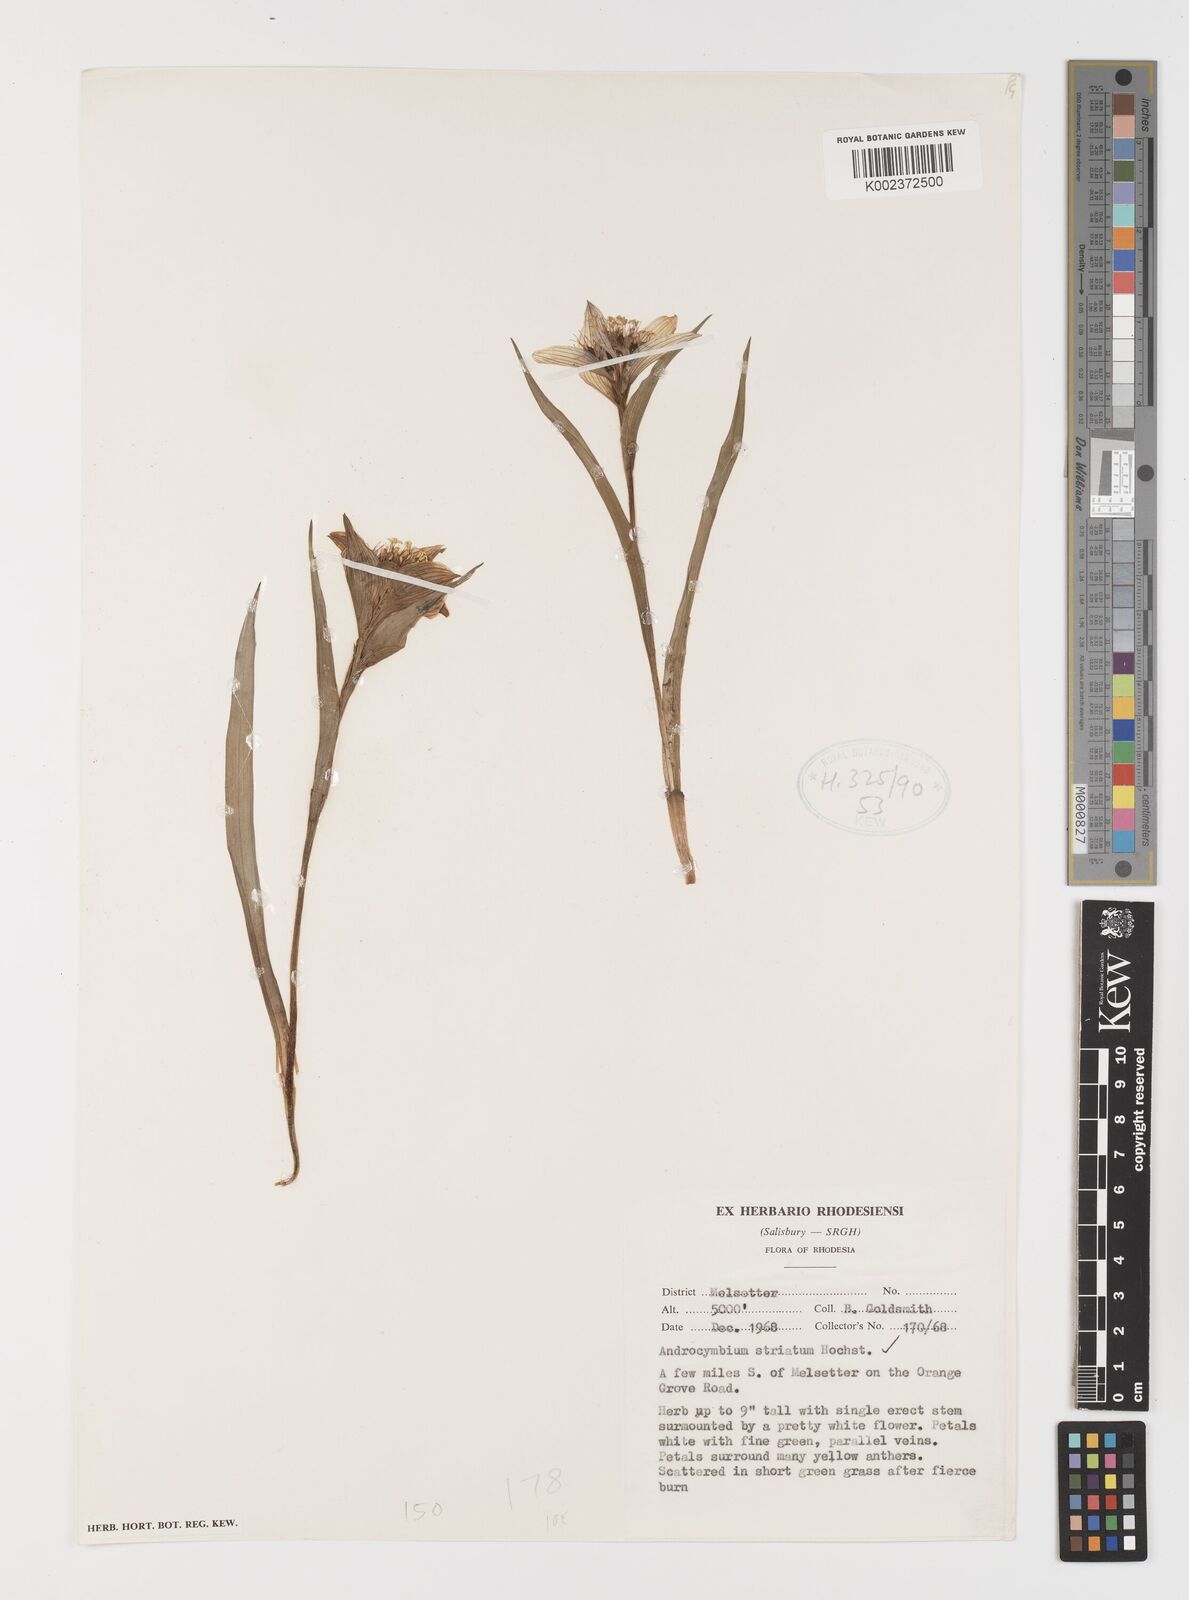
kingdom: Plantae
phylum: Tracheophyta
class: Liliopsida
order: Liliales
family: Colchicaceae
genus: Colchicum
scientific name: Colchicum striatum
